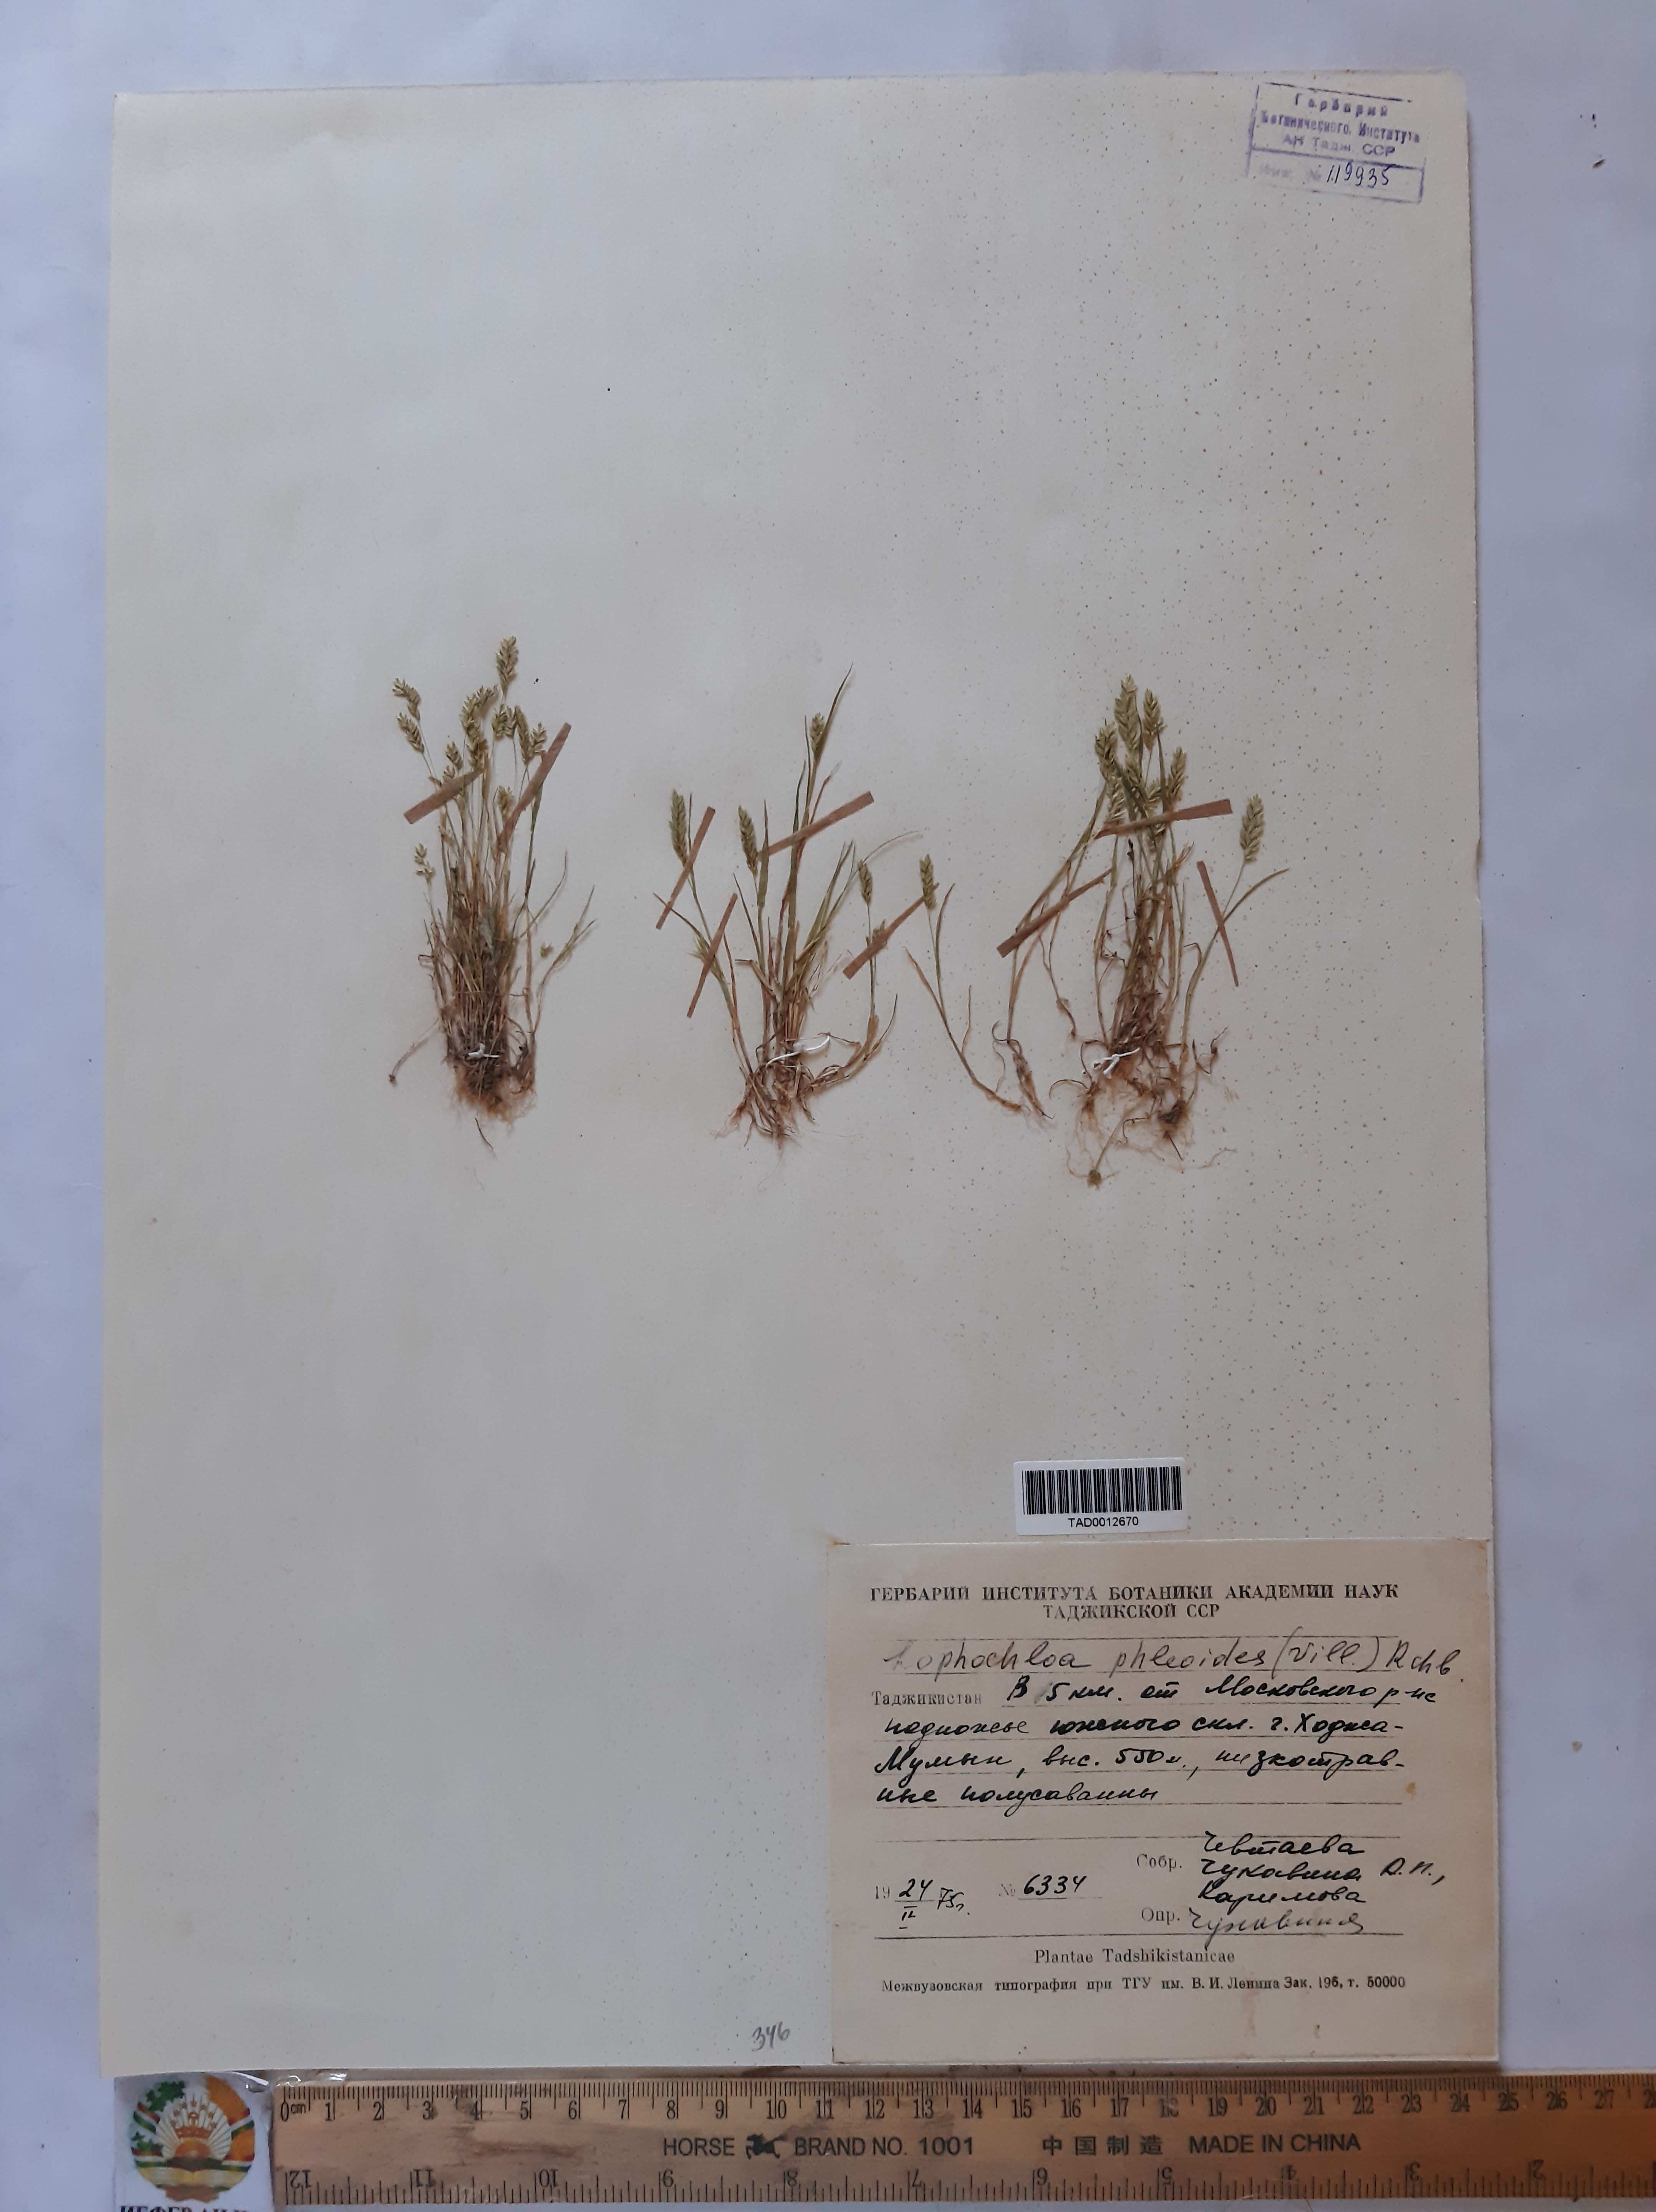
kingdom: Plantae
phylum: Tracheophyta
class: Liliopsida
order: Poales
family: Poaceae
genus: Rostraria
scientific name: Rostraria cristata
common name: Mediterranean hair-grass
